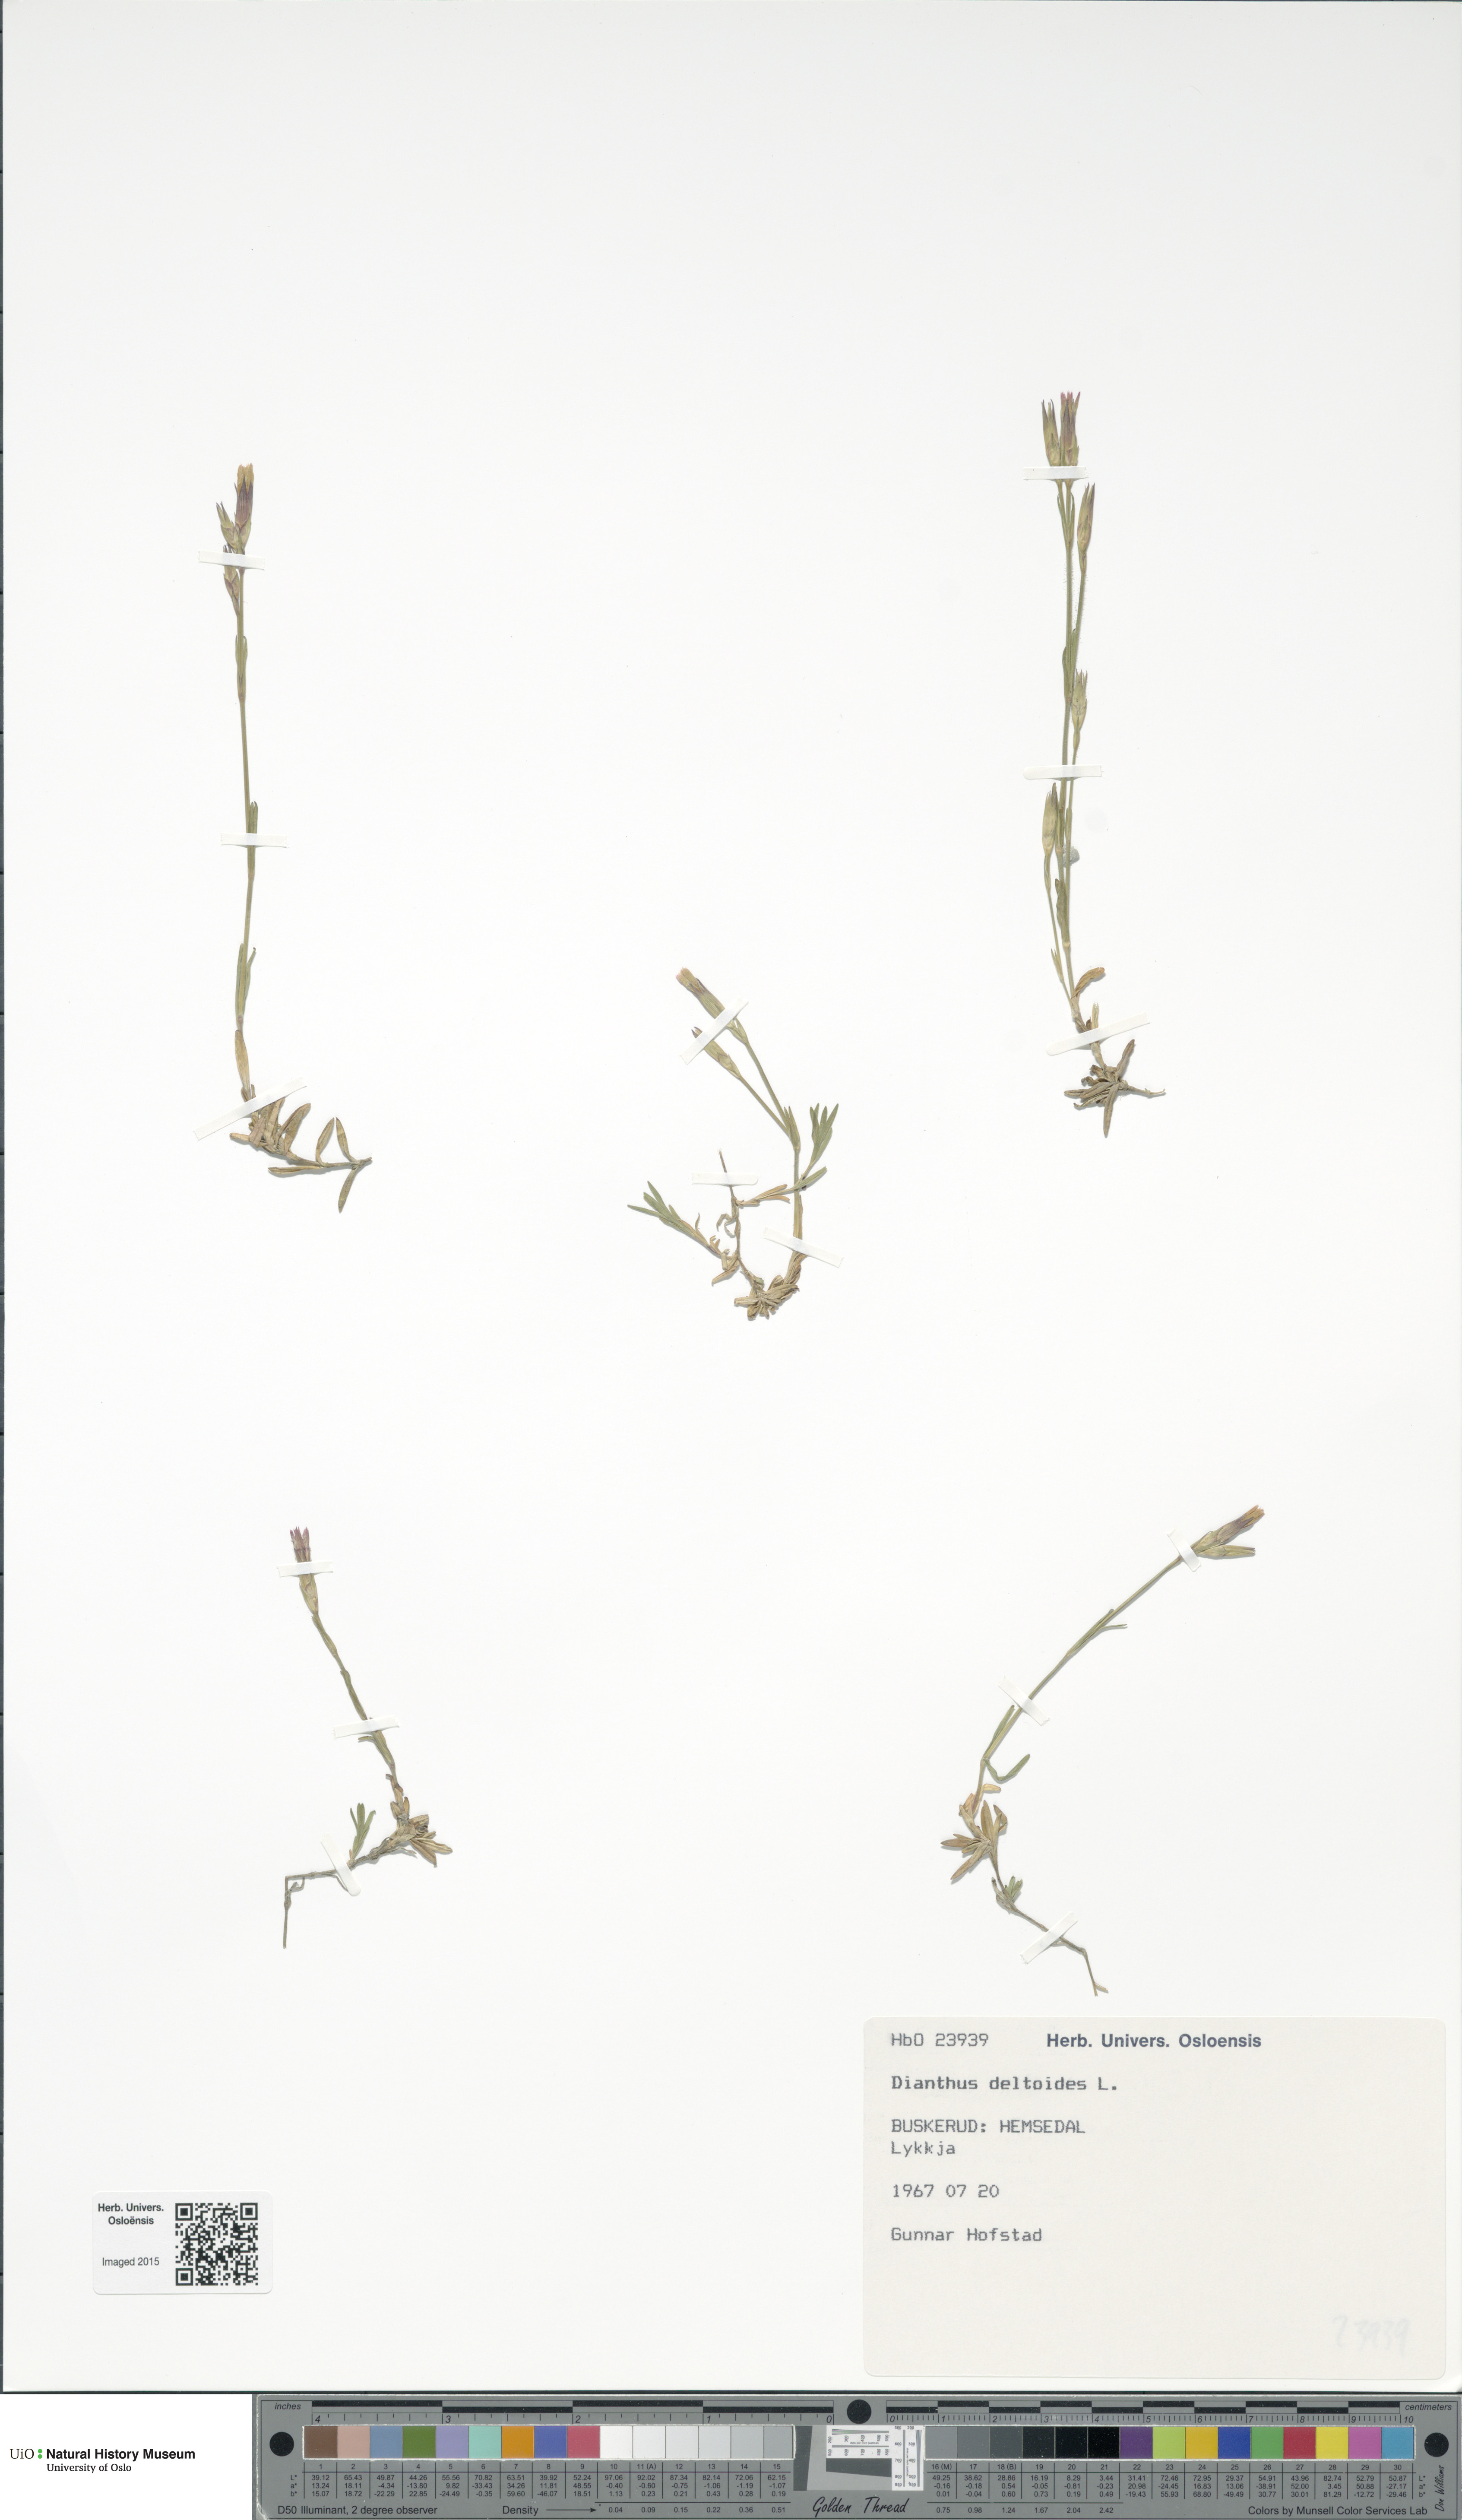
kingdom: Plantae
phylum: Tracheophyta
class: Magnoliopsida
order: Caryophyllales
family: Caryophyllaceae
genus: Dianthus
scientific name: Dianthus deltoides
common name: Maiden pink
